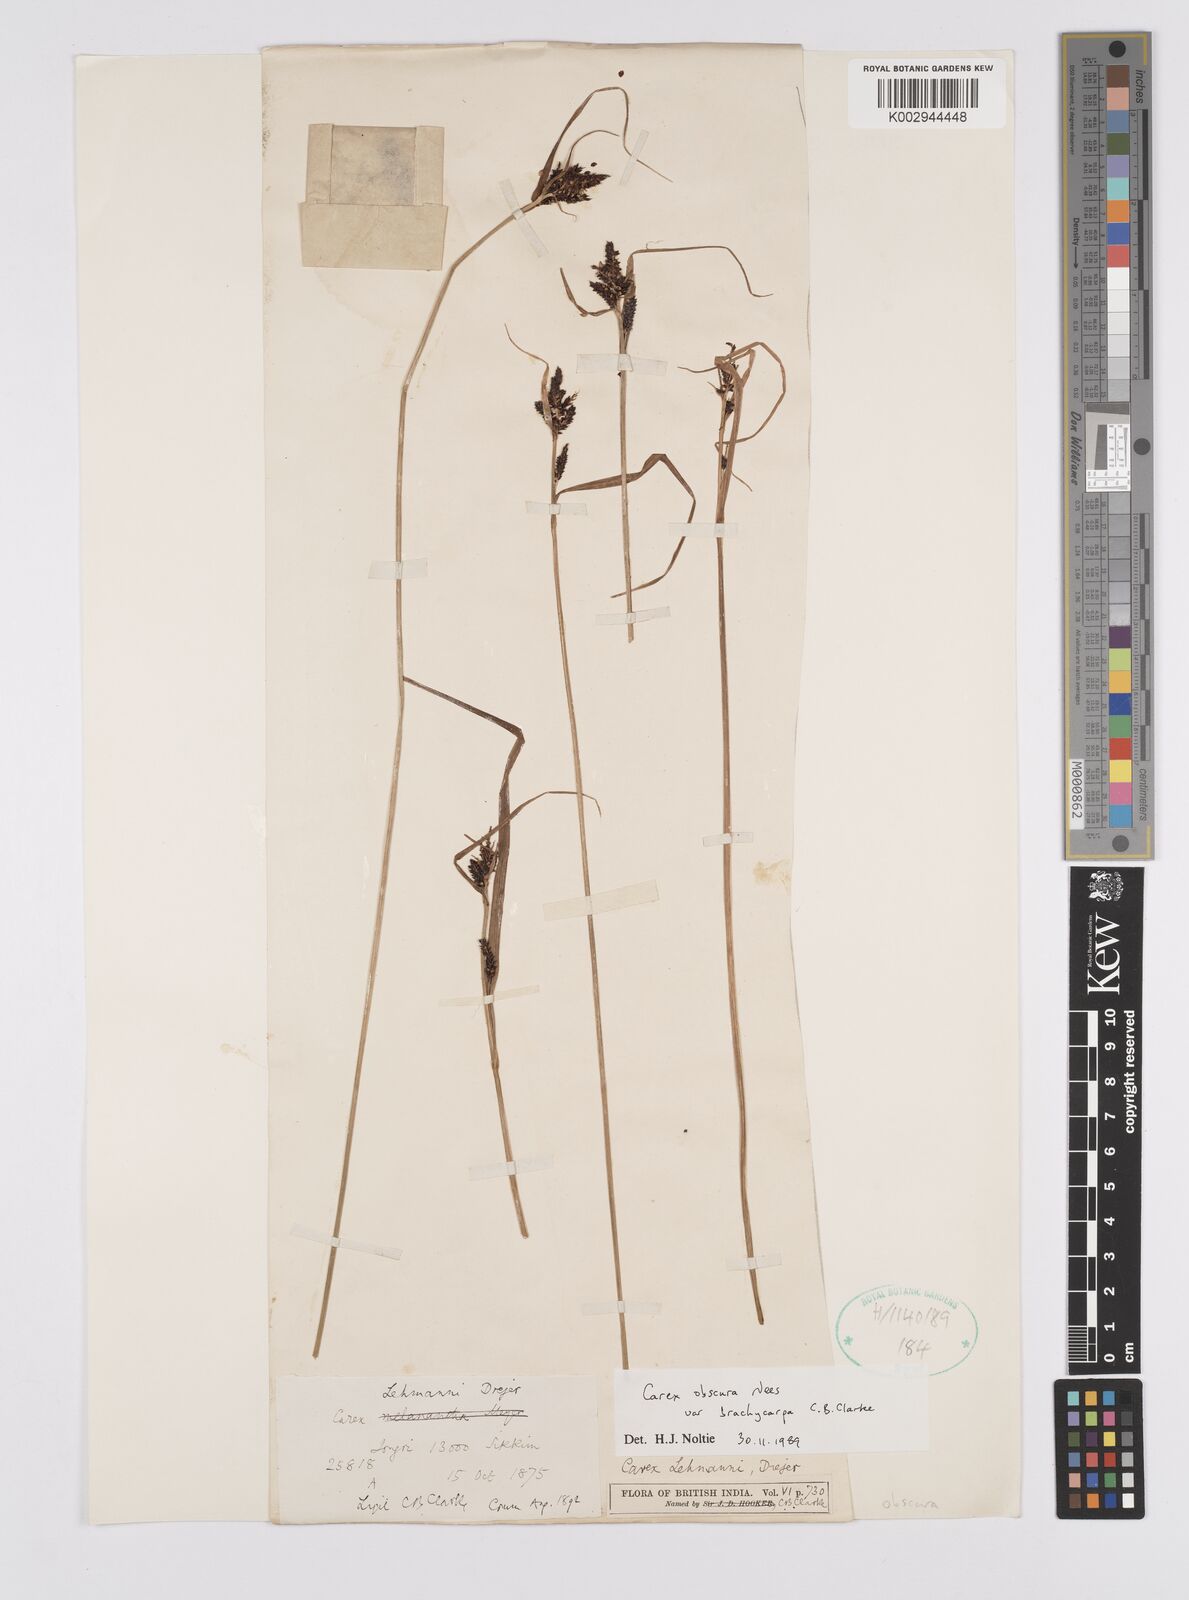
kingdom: Plantae
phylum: Tracheophyta
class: Liliopsida
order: Poales
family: Cyperaceae
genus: Carex
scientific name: Carex obscura
